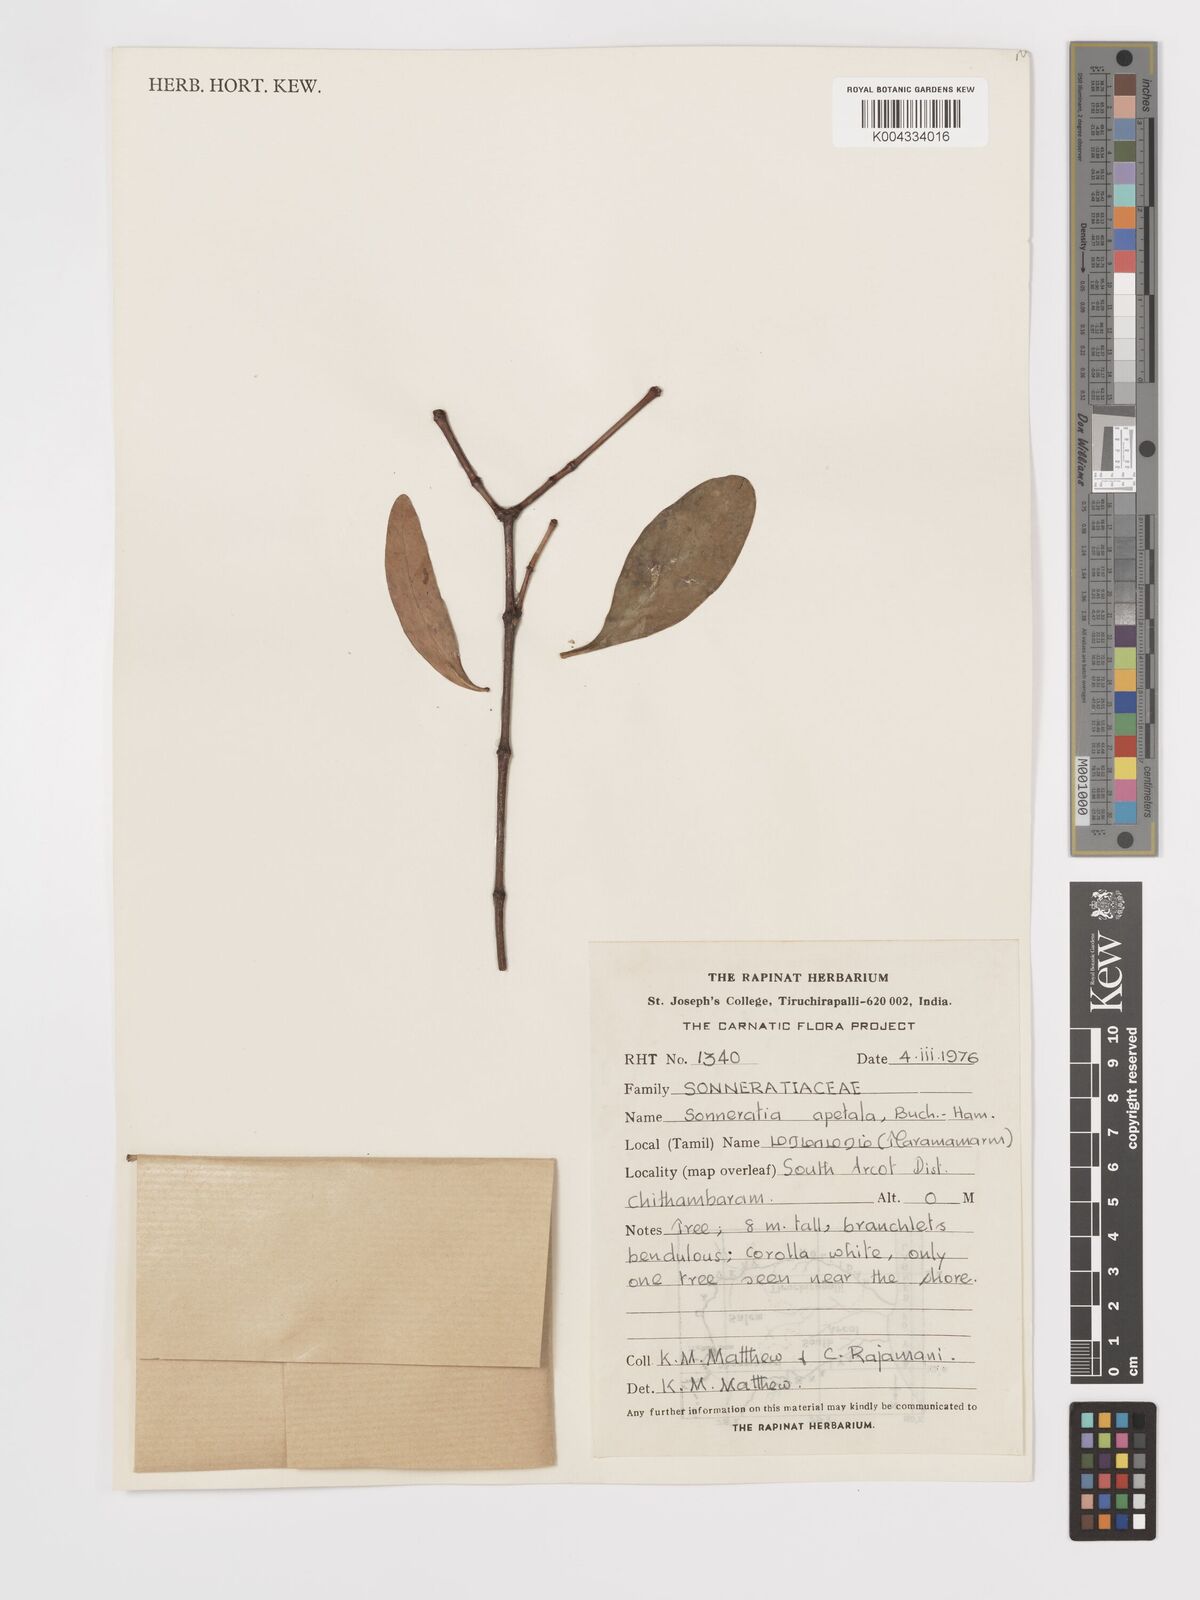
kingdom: Plantae
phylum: Tracheophyta
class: Magnoliopsida
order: Myrtales
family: Lythraceae
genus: Sonneratia
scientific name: Sonneratia apetala
